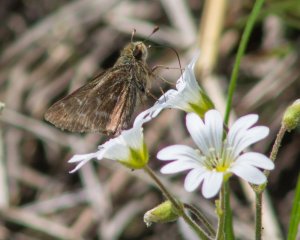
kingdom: Animalia
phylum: Arthropoda
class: Insecta
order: Lepidoptera
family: Hesperiidae
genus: Hesperia
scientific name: Hesperia metea
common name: Cobweb Skipper
